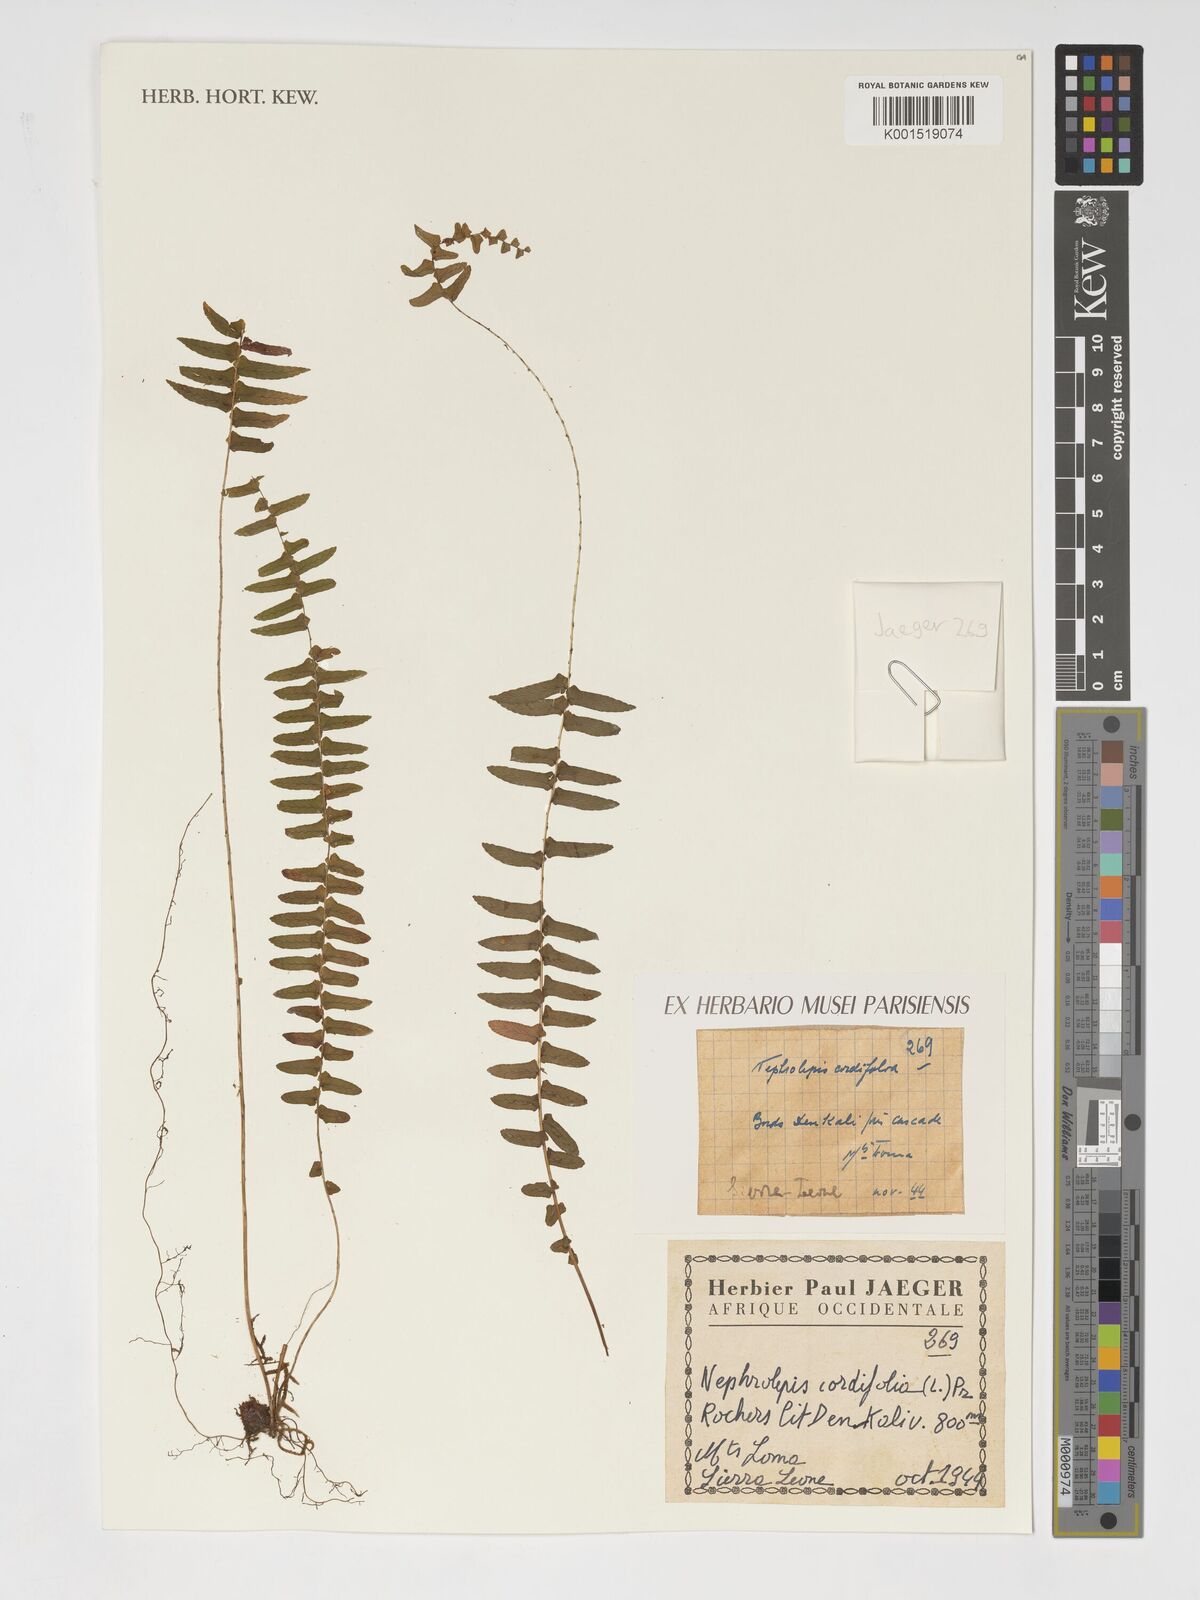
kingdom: Plantae
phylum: Tracheophyta
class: Polypodiopsida
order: Polypodiales
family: Nephrolepidaceae
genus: Nephrolepis
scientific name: Nephrolepis cordifolia
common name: Narrow swordfern
